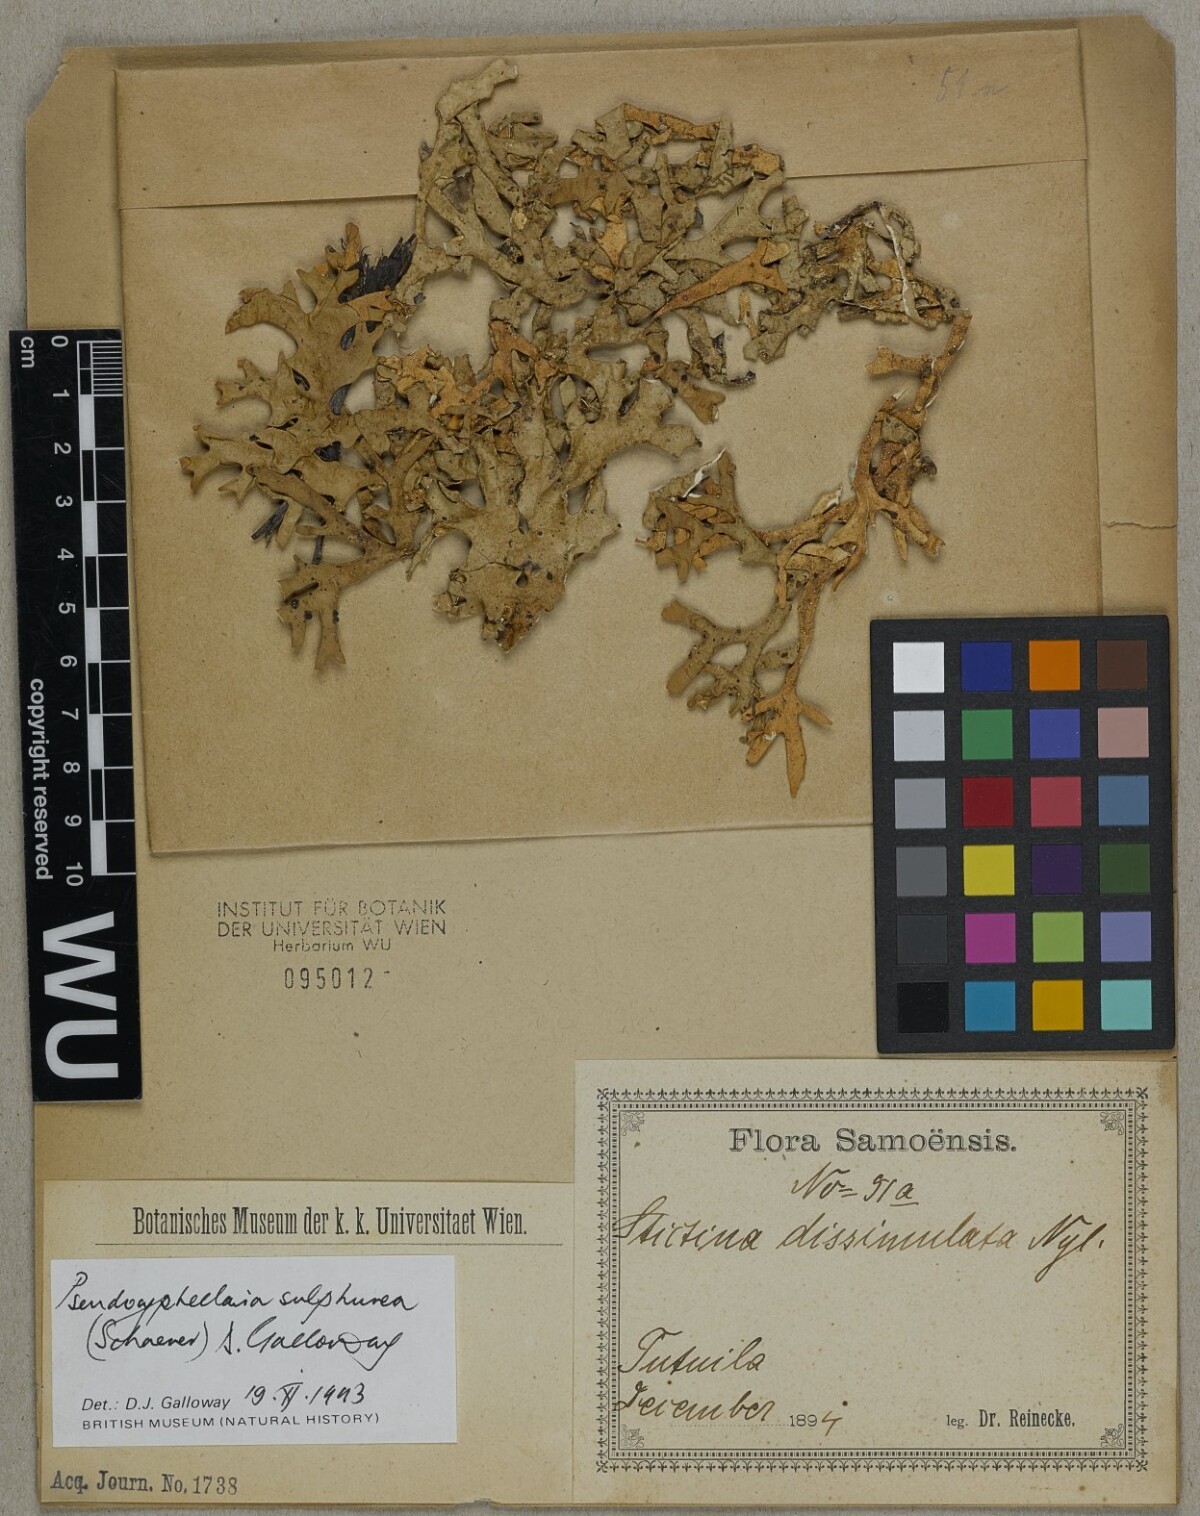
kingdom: Fungi
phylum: Ascomycota
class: Lecanoromycetes
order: Peltigerales
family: Lobariaceae
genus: Pseudocyphellaria
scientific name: Pseudocyphellaria sulphurea
